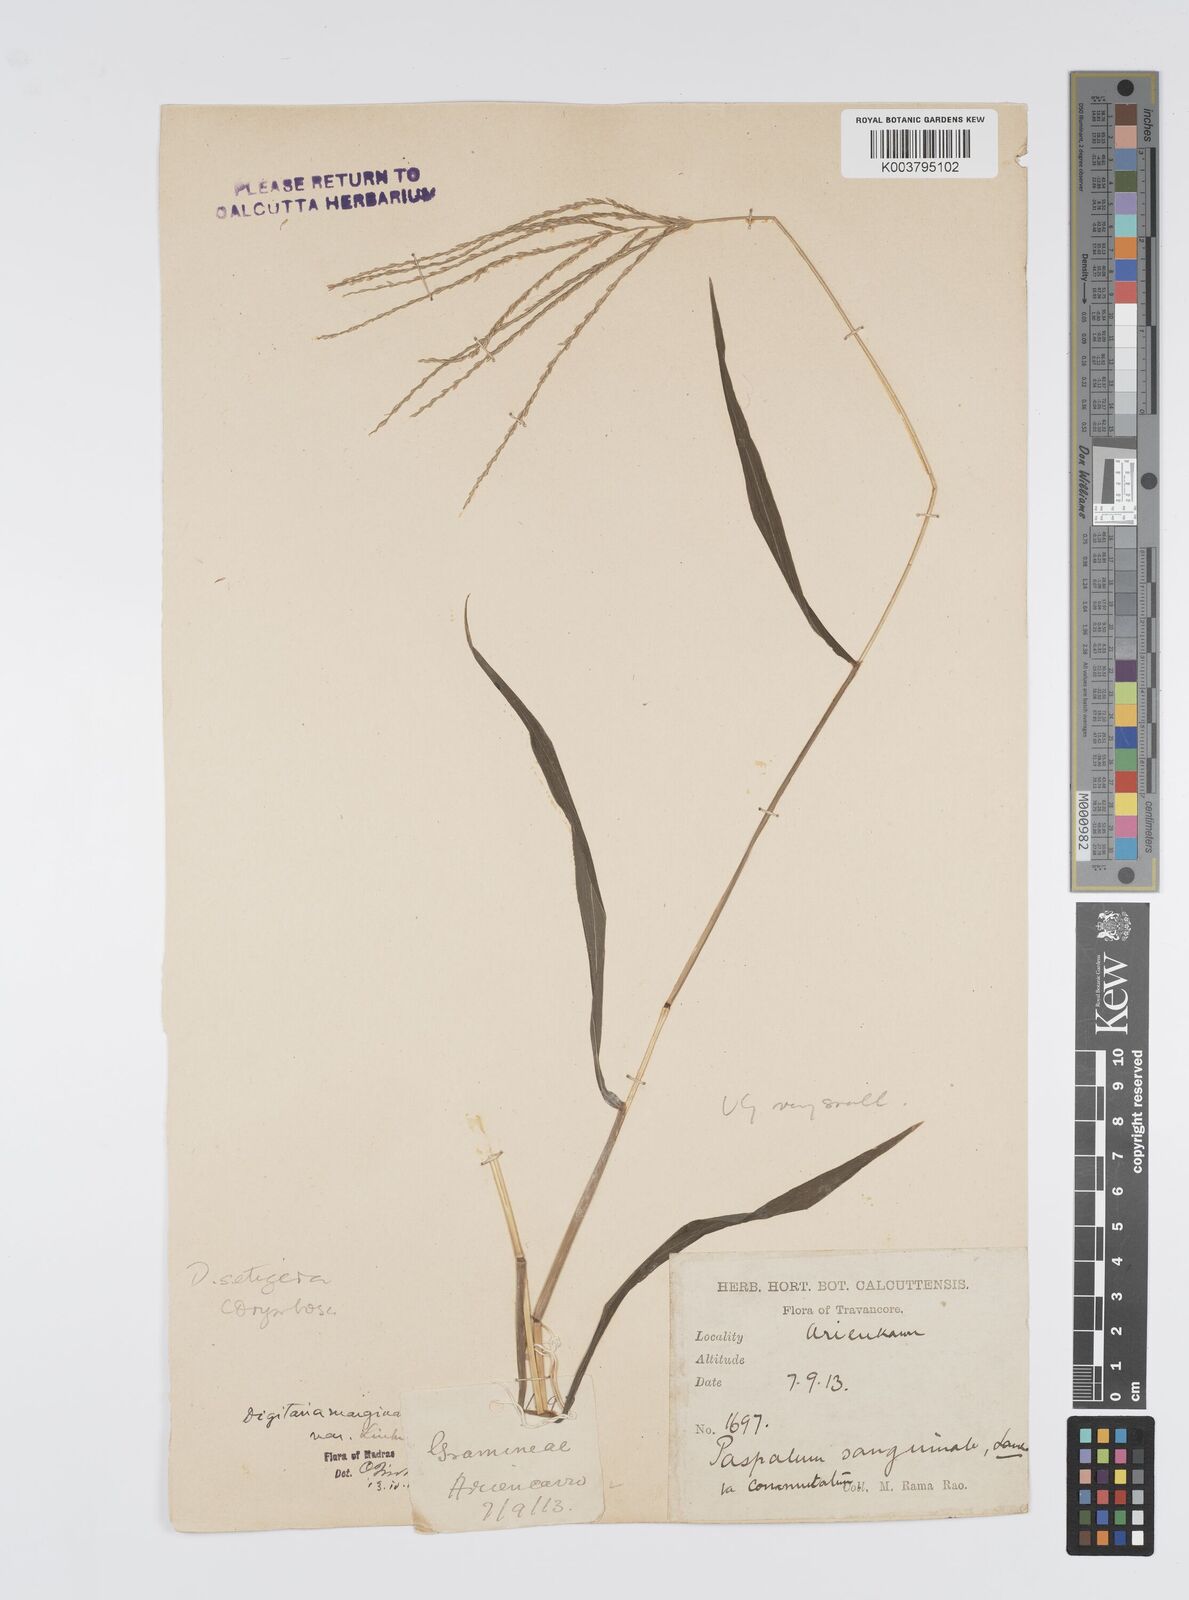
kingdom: Plantae
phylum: Tracheophyta
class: Liliopsida
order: Poales
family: Poaceae
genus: Digitaria
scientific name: Digitaria setigera
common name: East indian crabgrass
